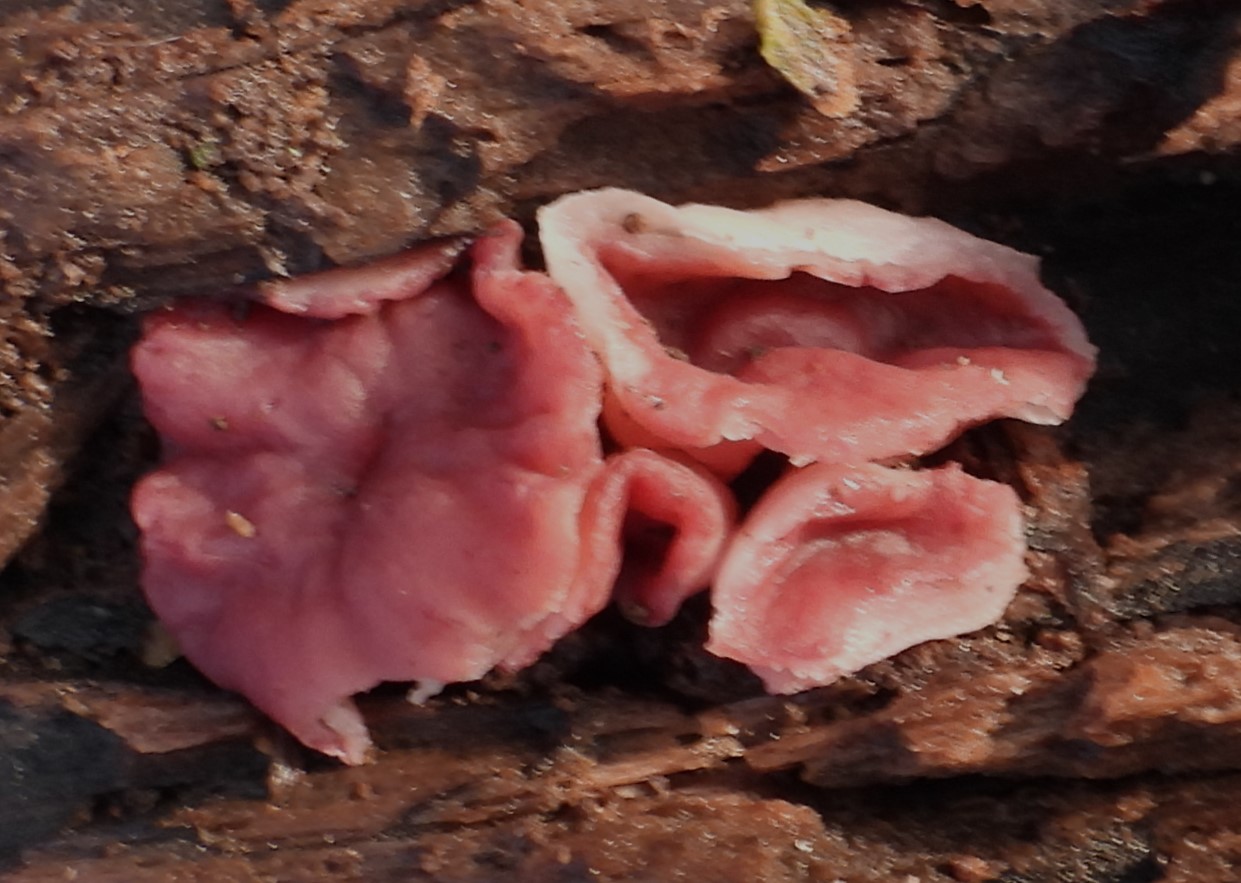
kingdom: Fungi
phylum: Ascomycota
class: Leotiomycetes
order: Helotiales
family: Gelatinodiscaceae
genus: Ascocoryne
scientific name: Ascocoryne cylichnium
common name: stor sejskive
